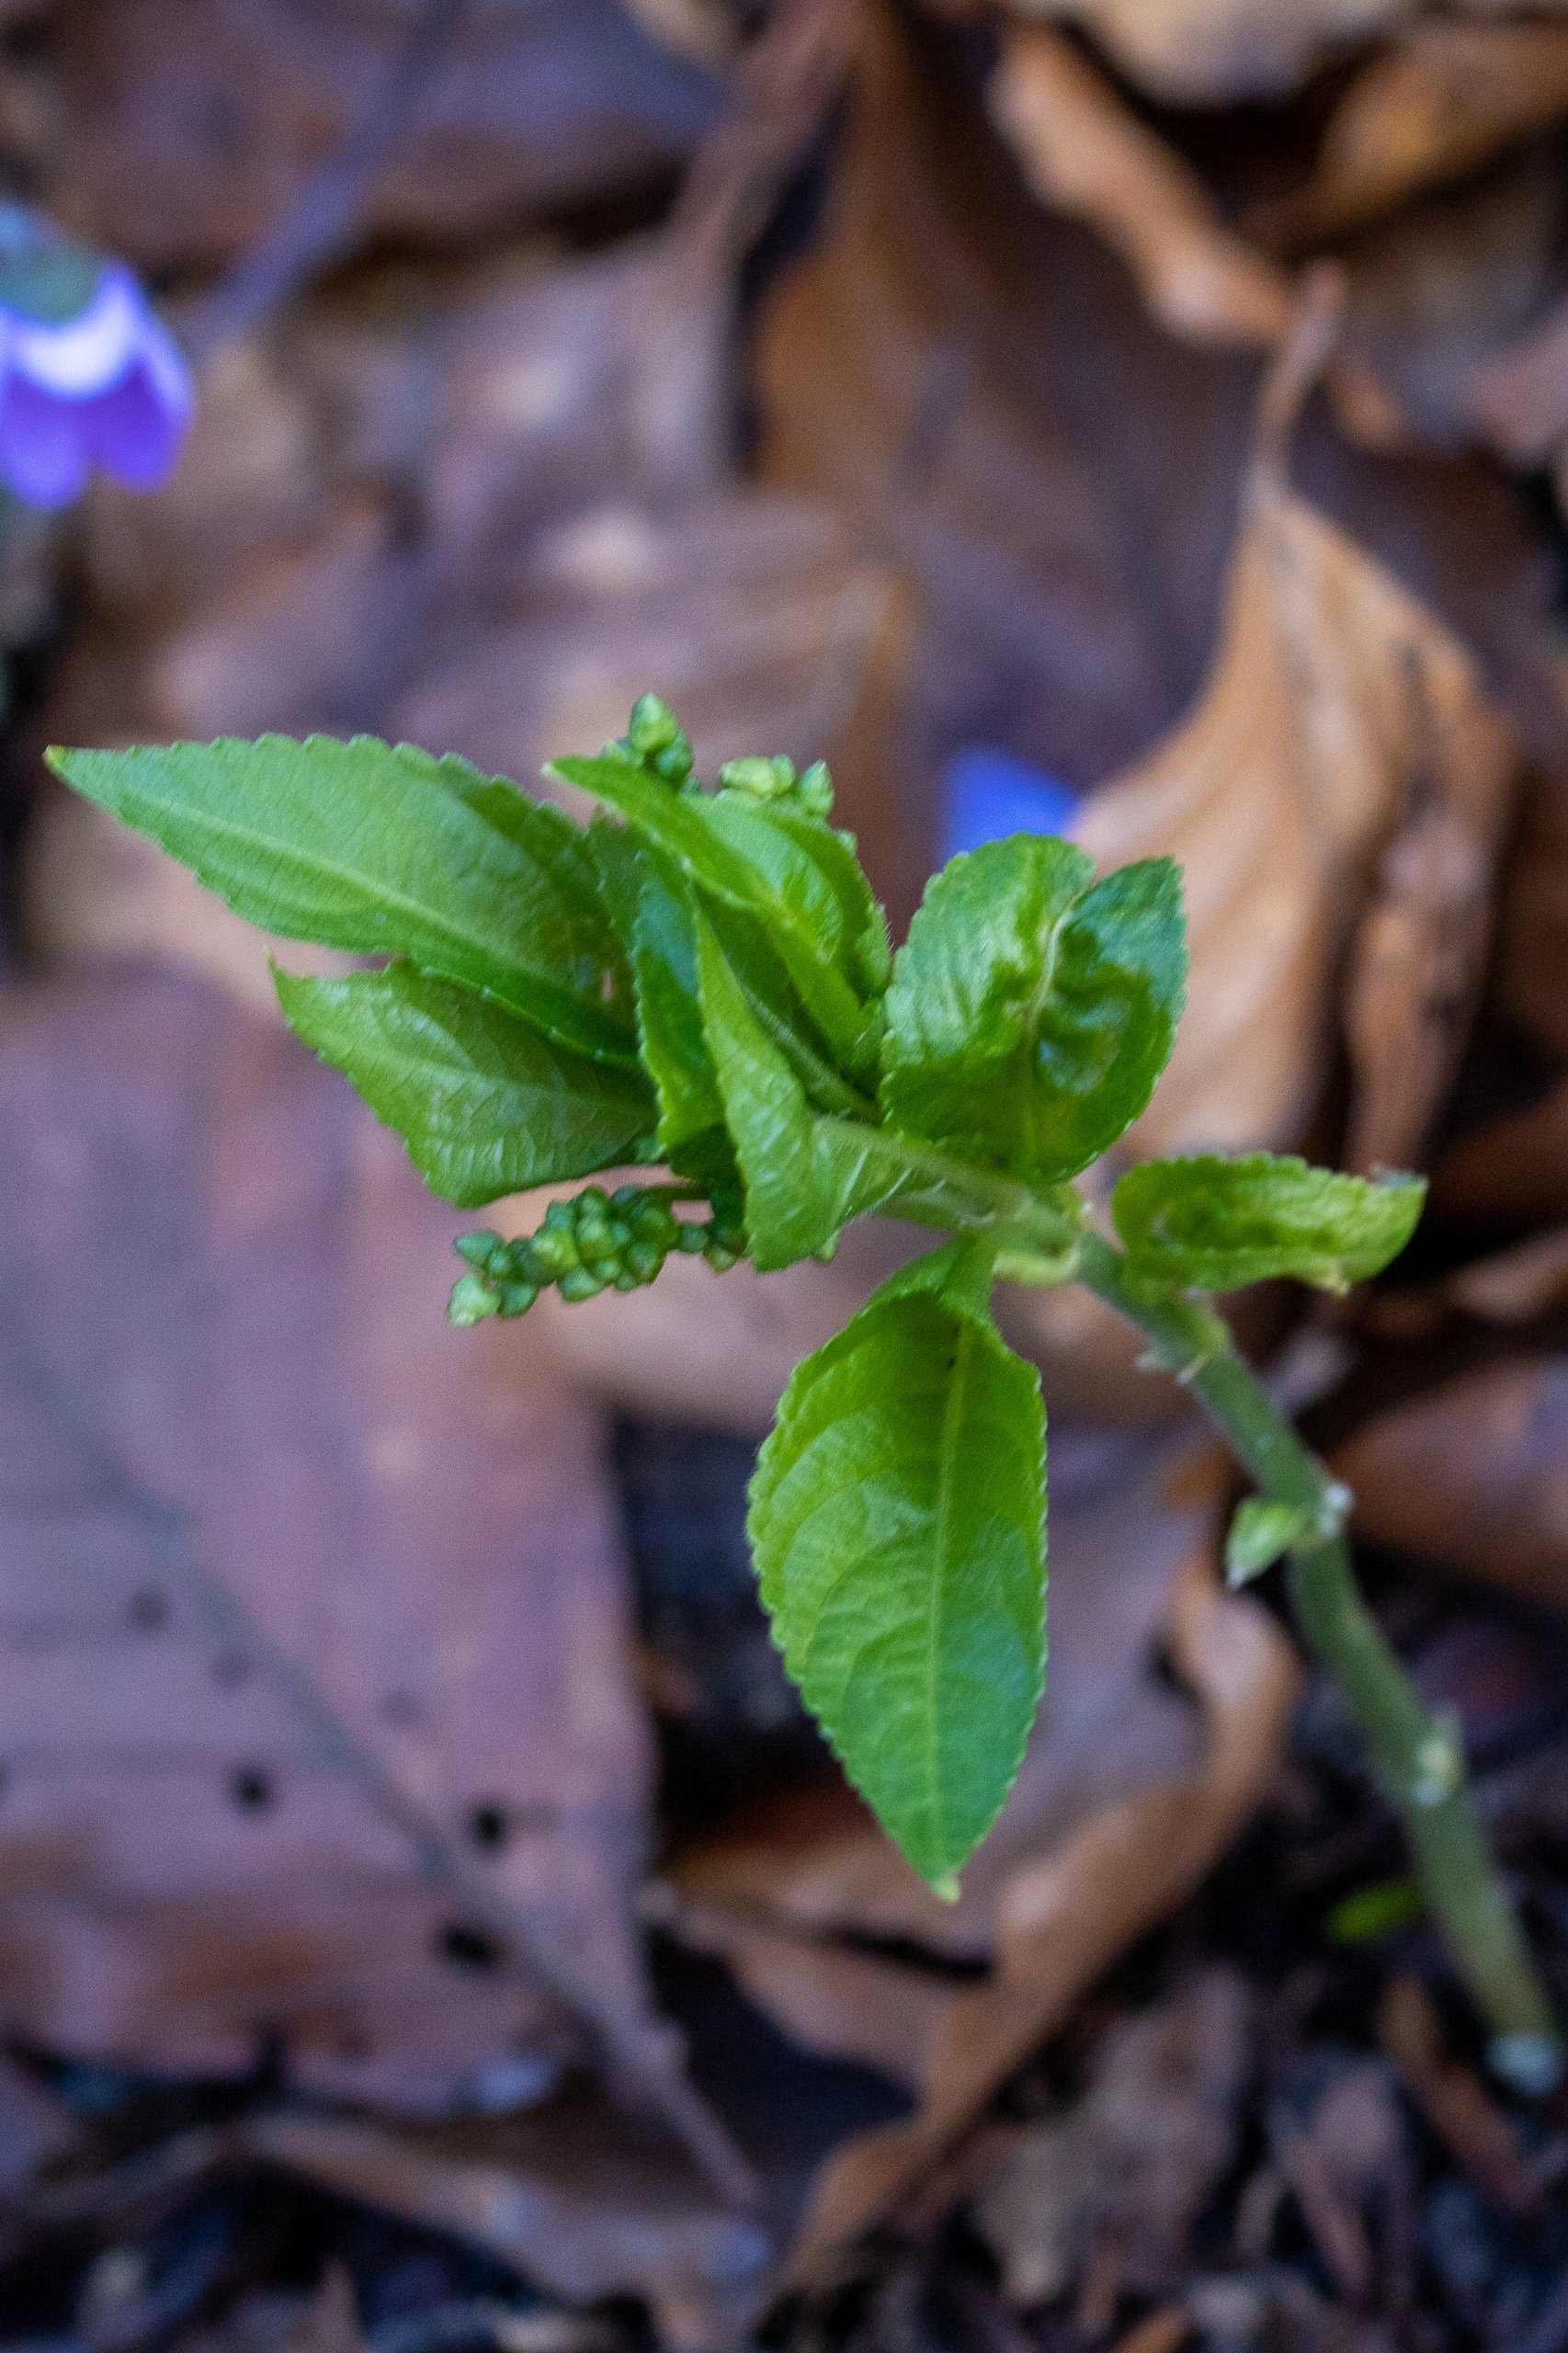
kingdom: Plantae
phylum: Tracheophyta
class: Magnoliopsida
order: Malpighiales
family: Euphorbiaceae
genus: Mercurialis
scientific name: Mercurialis perennis
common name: Almindelig bingelurt
